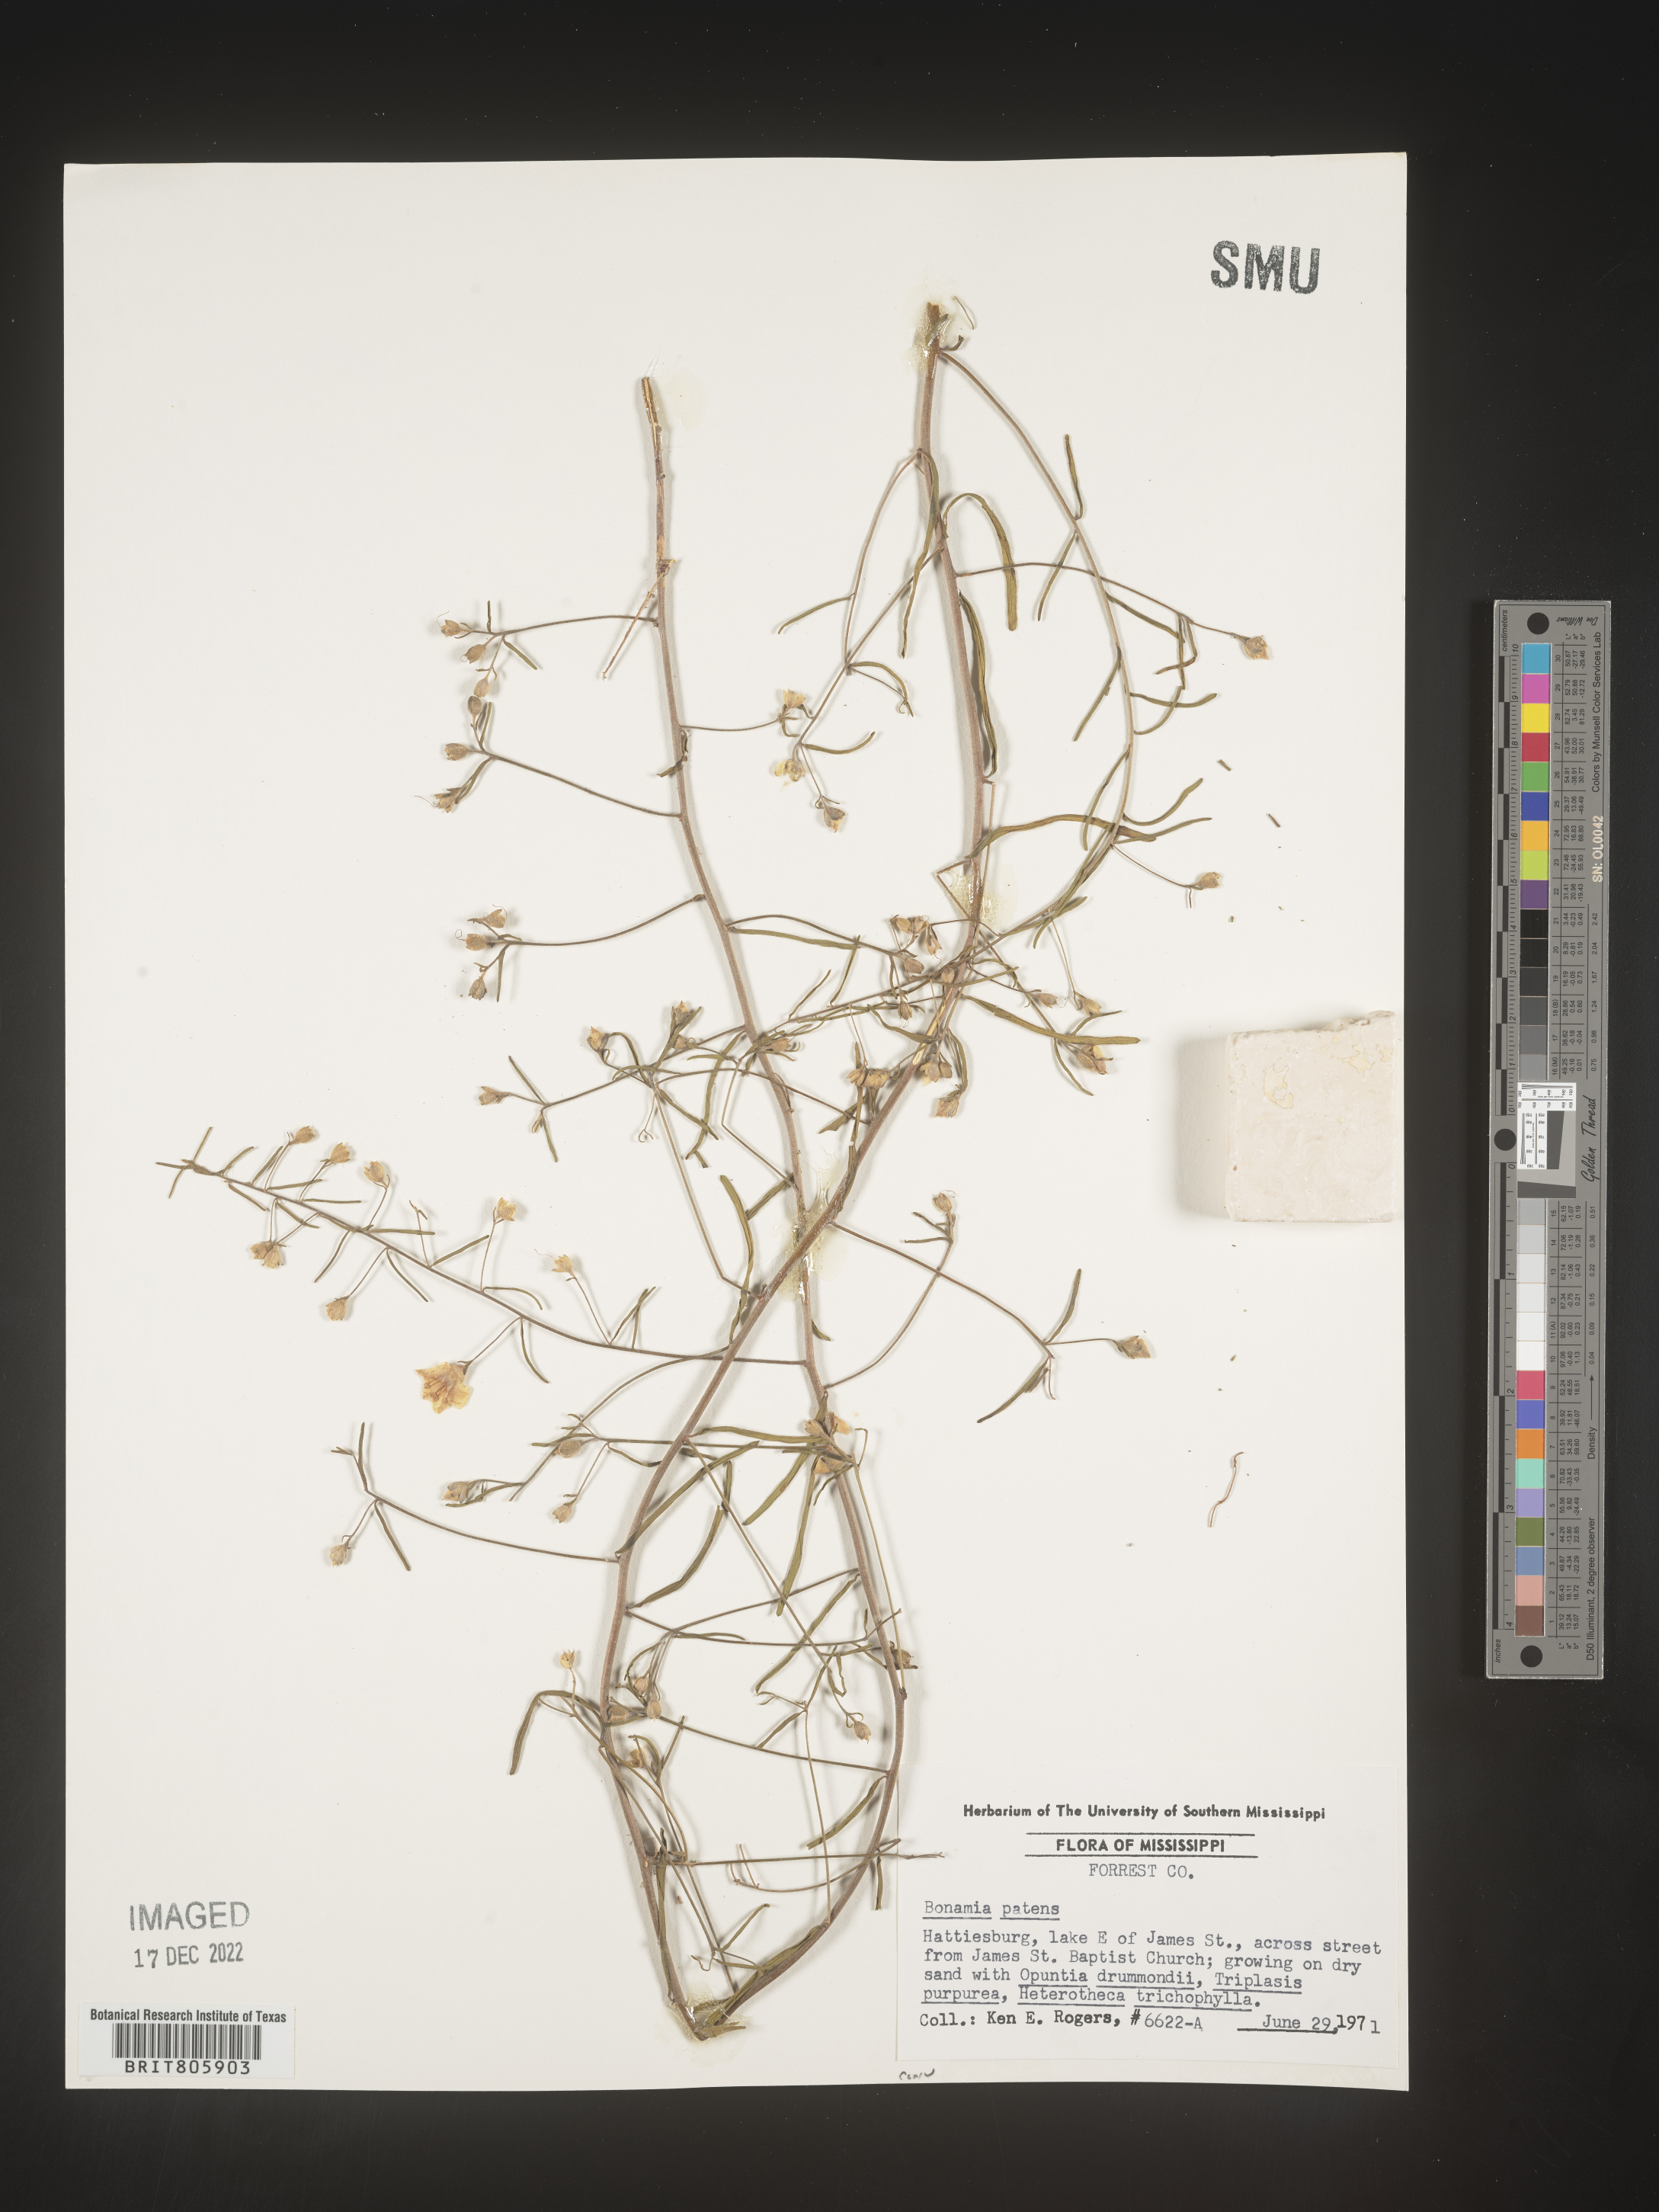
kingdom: Plantae
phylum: Tracheophyta
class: Magnoliopsida
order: Solanales
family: Convolvulaceae
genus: Stylisma
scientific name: Stylisma
